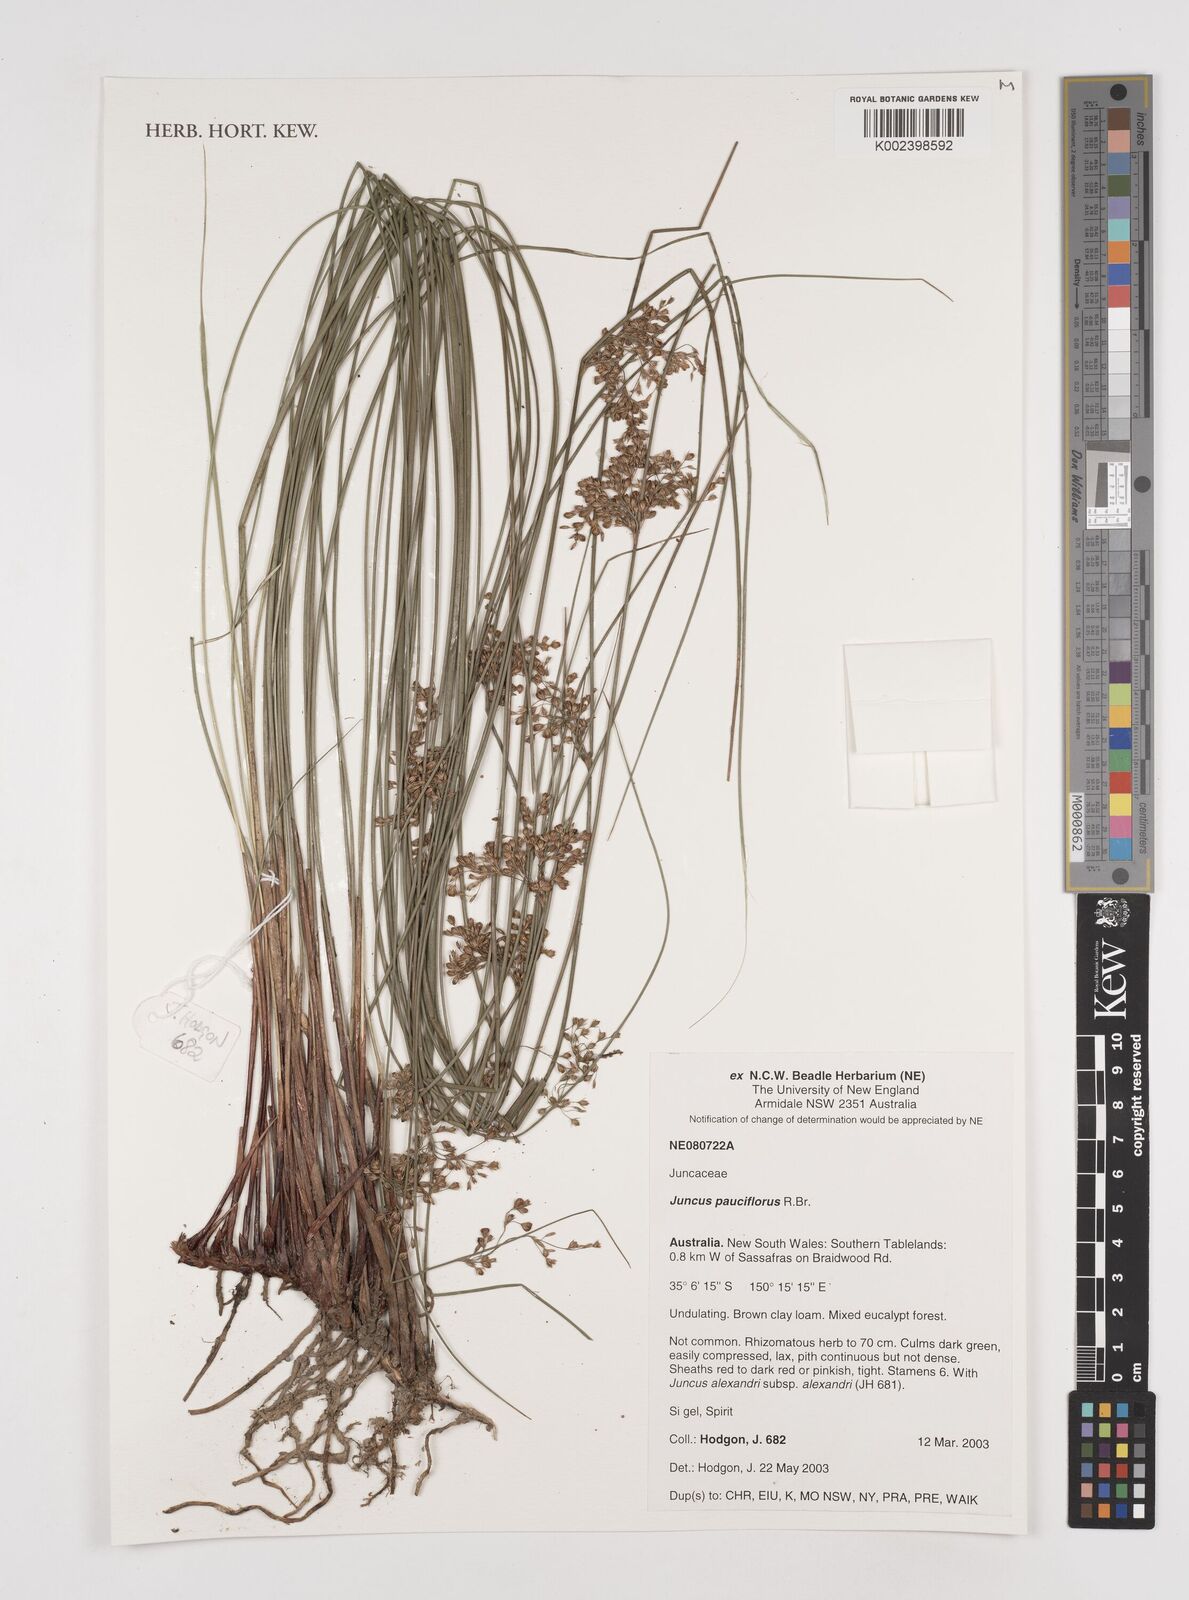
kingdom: Plantae
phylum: Tracheophyta
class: Liliopsida
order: Poales
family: Juncaceae
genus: Juncus
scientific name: Juncus pauciflorus
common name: Loose-flowered rush
